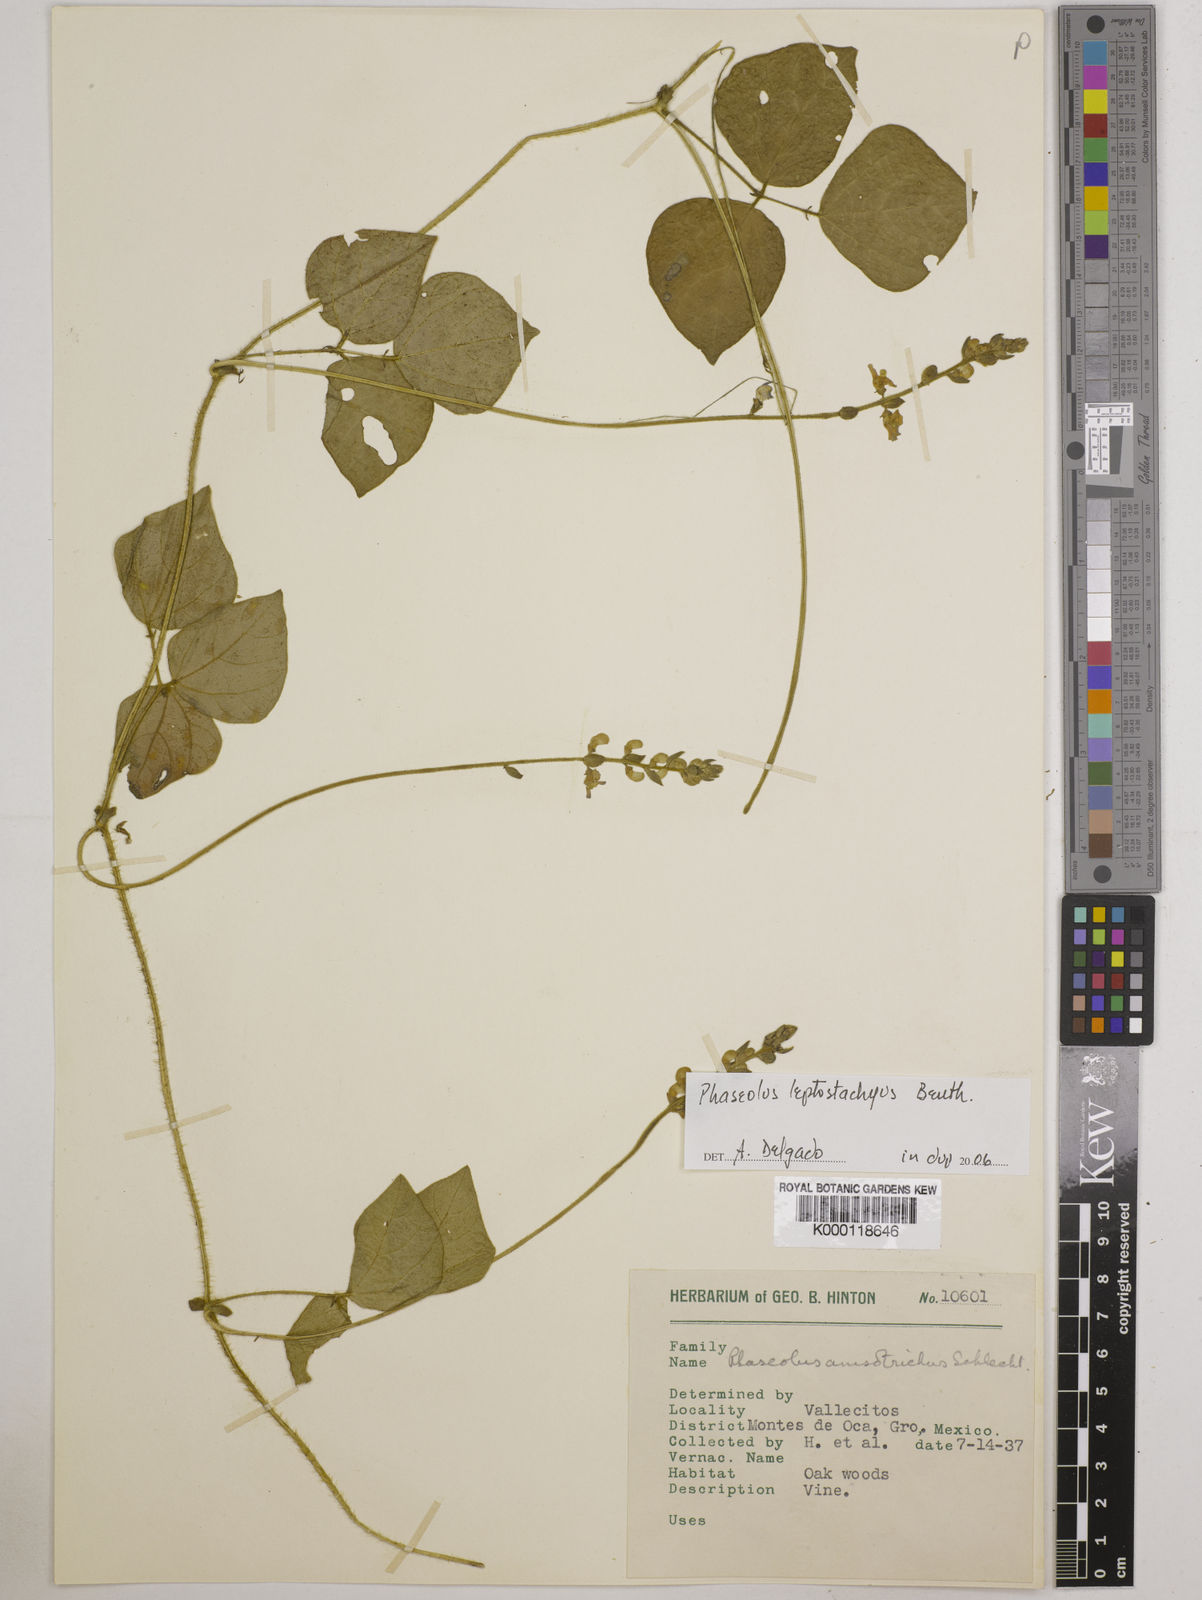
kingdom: Plantae
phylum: Tracheophyta
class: Magnoliopsida
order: Fabales
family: Fabaceae
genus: Phaseolus
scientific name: Phaseolus
